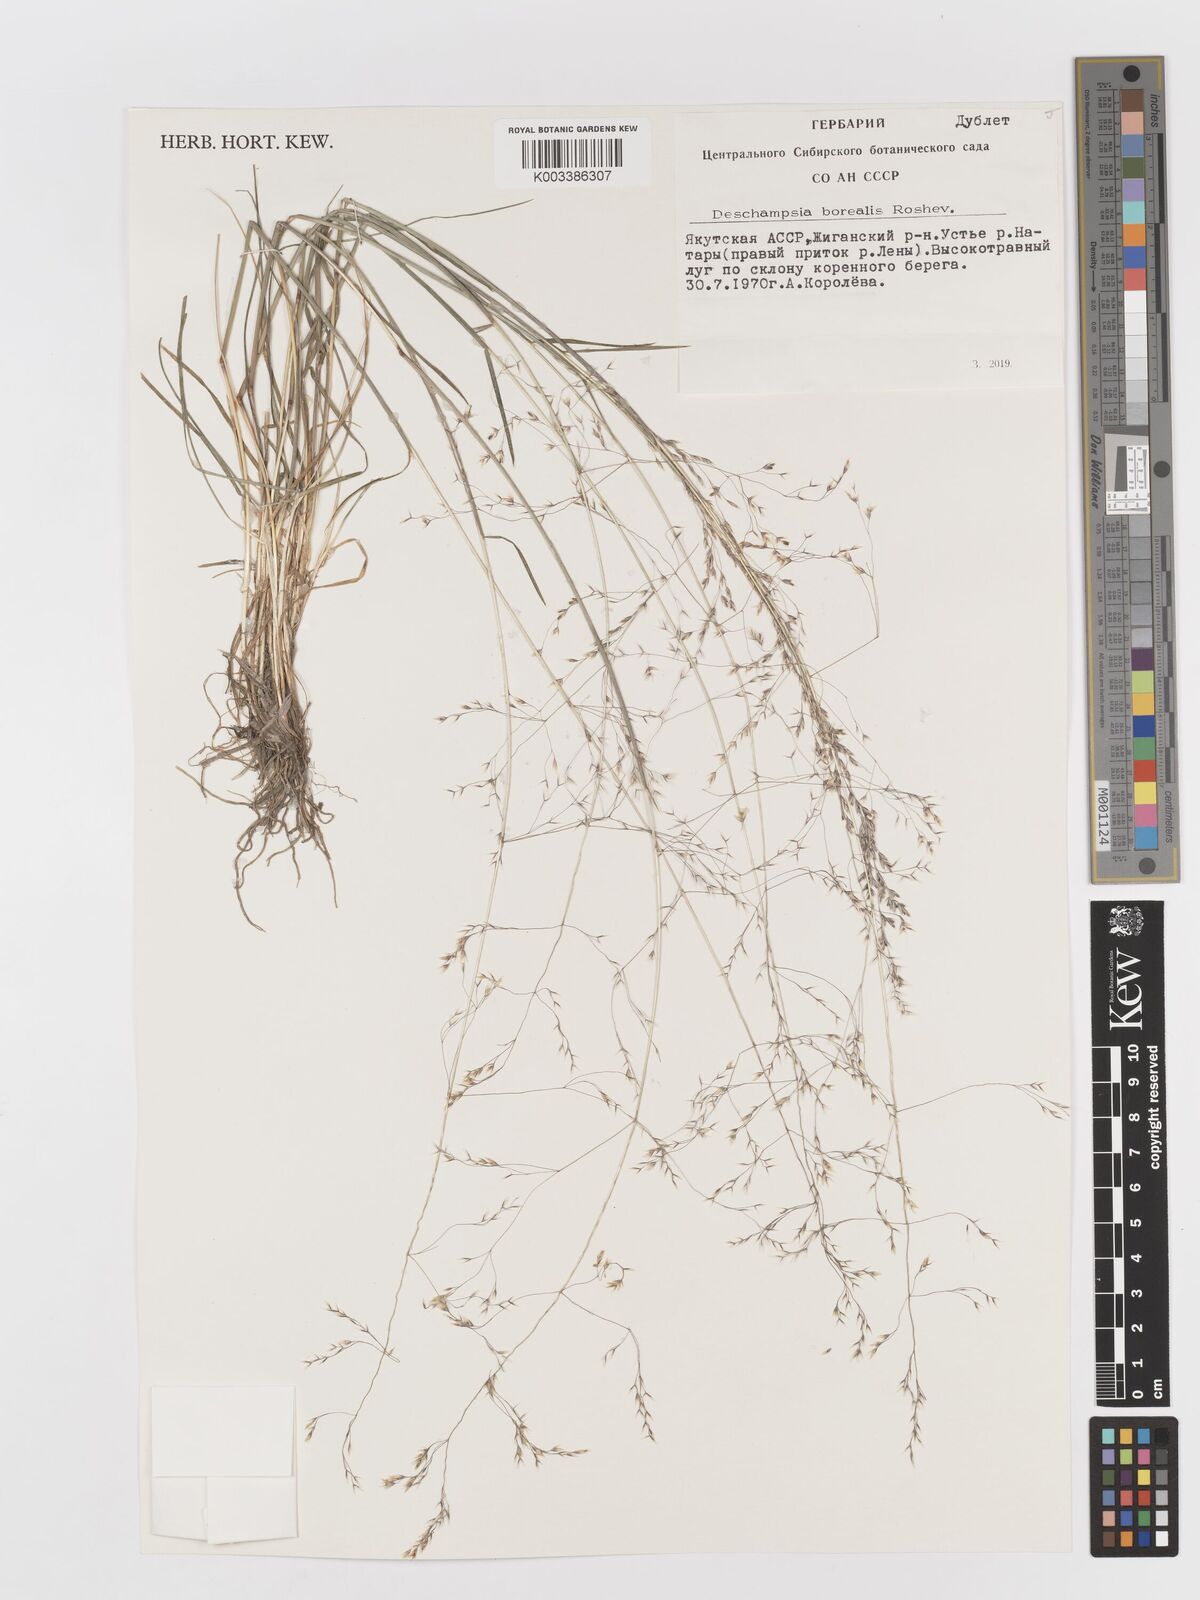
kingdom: Plantae
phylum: Tracheophyta
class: Liliopsida
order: Poales
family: Poaceae
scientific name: Poaceae
